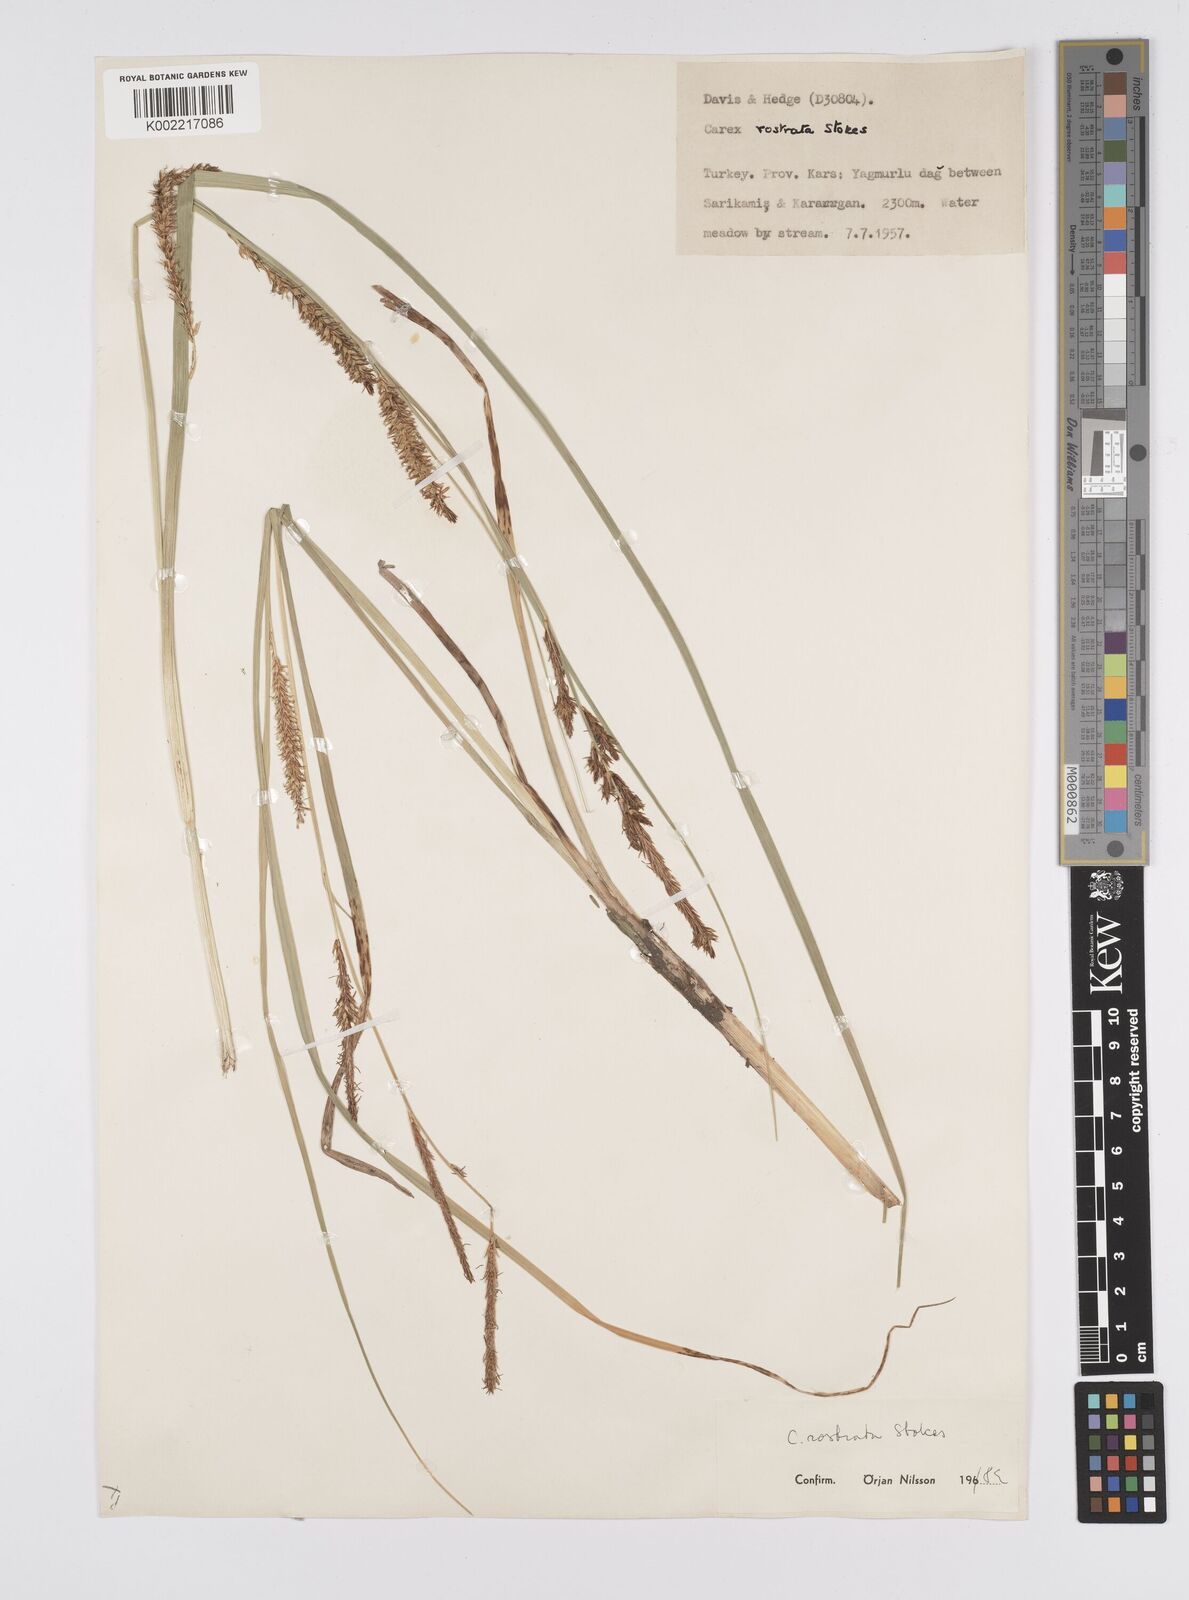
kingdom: Plantae
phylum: Tracheophyta
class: Liliopsida
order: Poales
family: Cyperaceae
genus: Carex
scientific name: Carex rostrata
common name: Bottle sedge
